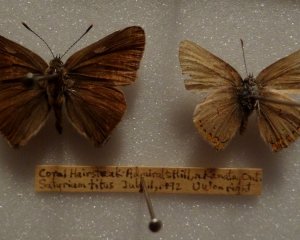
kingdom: Animalia
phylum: Arthropoda
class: Insecta
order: Lepidoptera
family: Lycaenidae
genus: Harkenclenus
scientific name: Harkenclenus titus
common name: Coral Hairstreak
